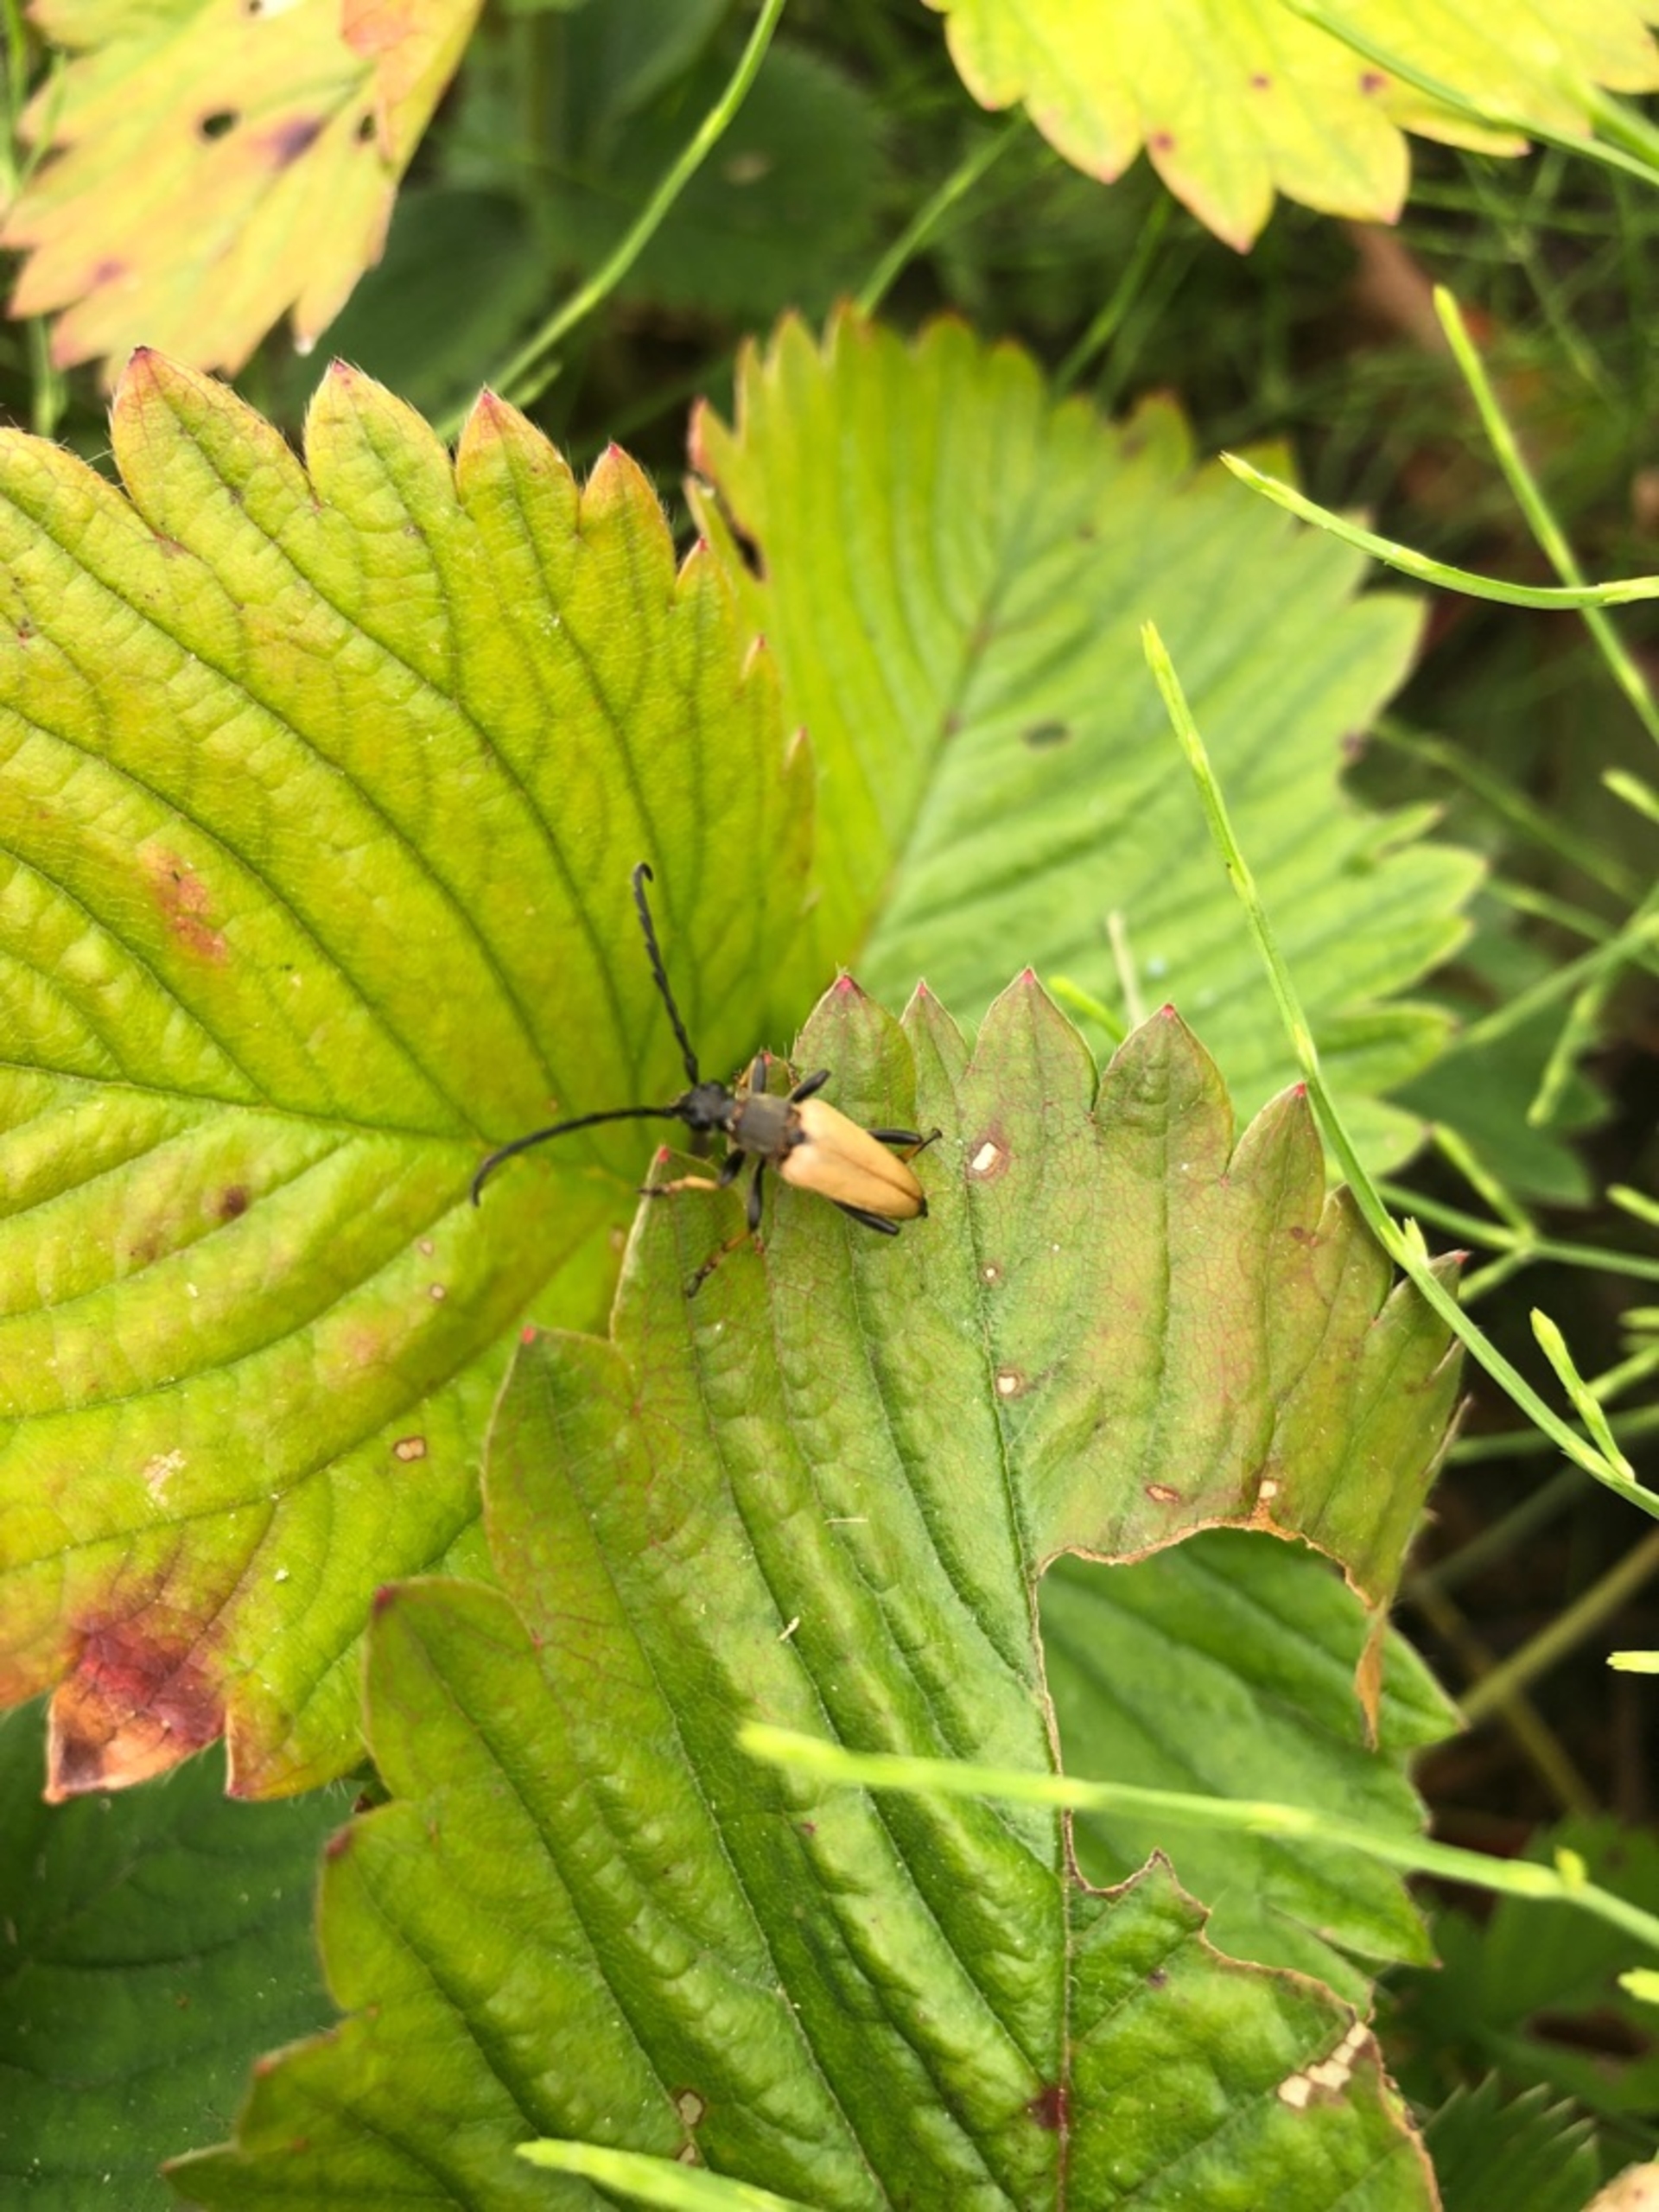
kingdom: Animalia
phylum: Arthropoda
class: Insecta
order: Coleoptera
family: Cerambycidae
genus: Stictoleptura
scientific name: Stictoleptura rubra
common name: Rød blomsterbuk
